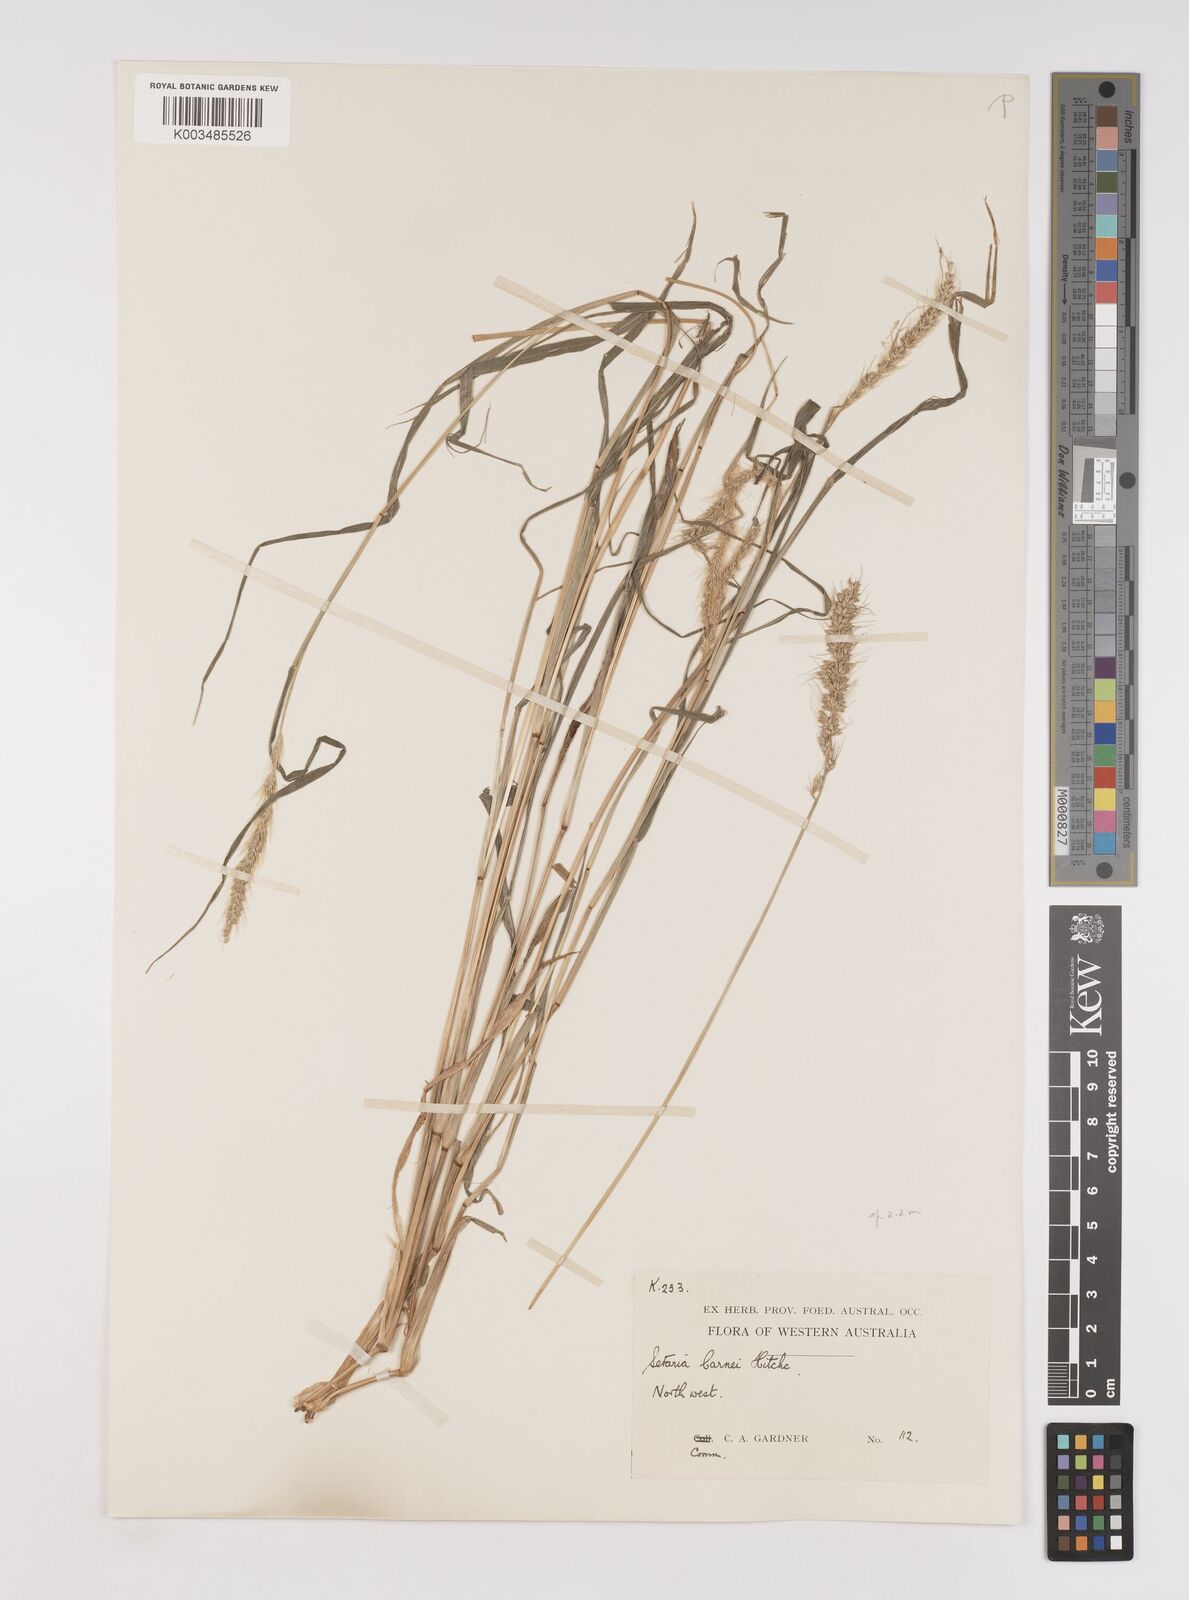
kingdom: Plantae
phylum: Tracheophyta
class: Liliopsida
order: Poales
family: Poaceae
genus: Setaria
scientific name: Setaria verticillata
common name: Hooked bristlegrass
